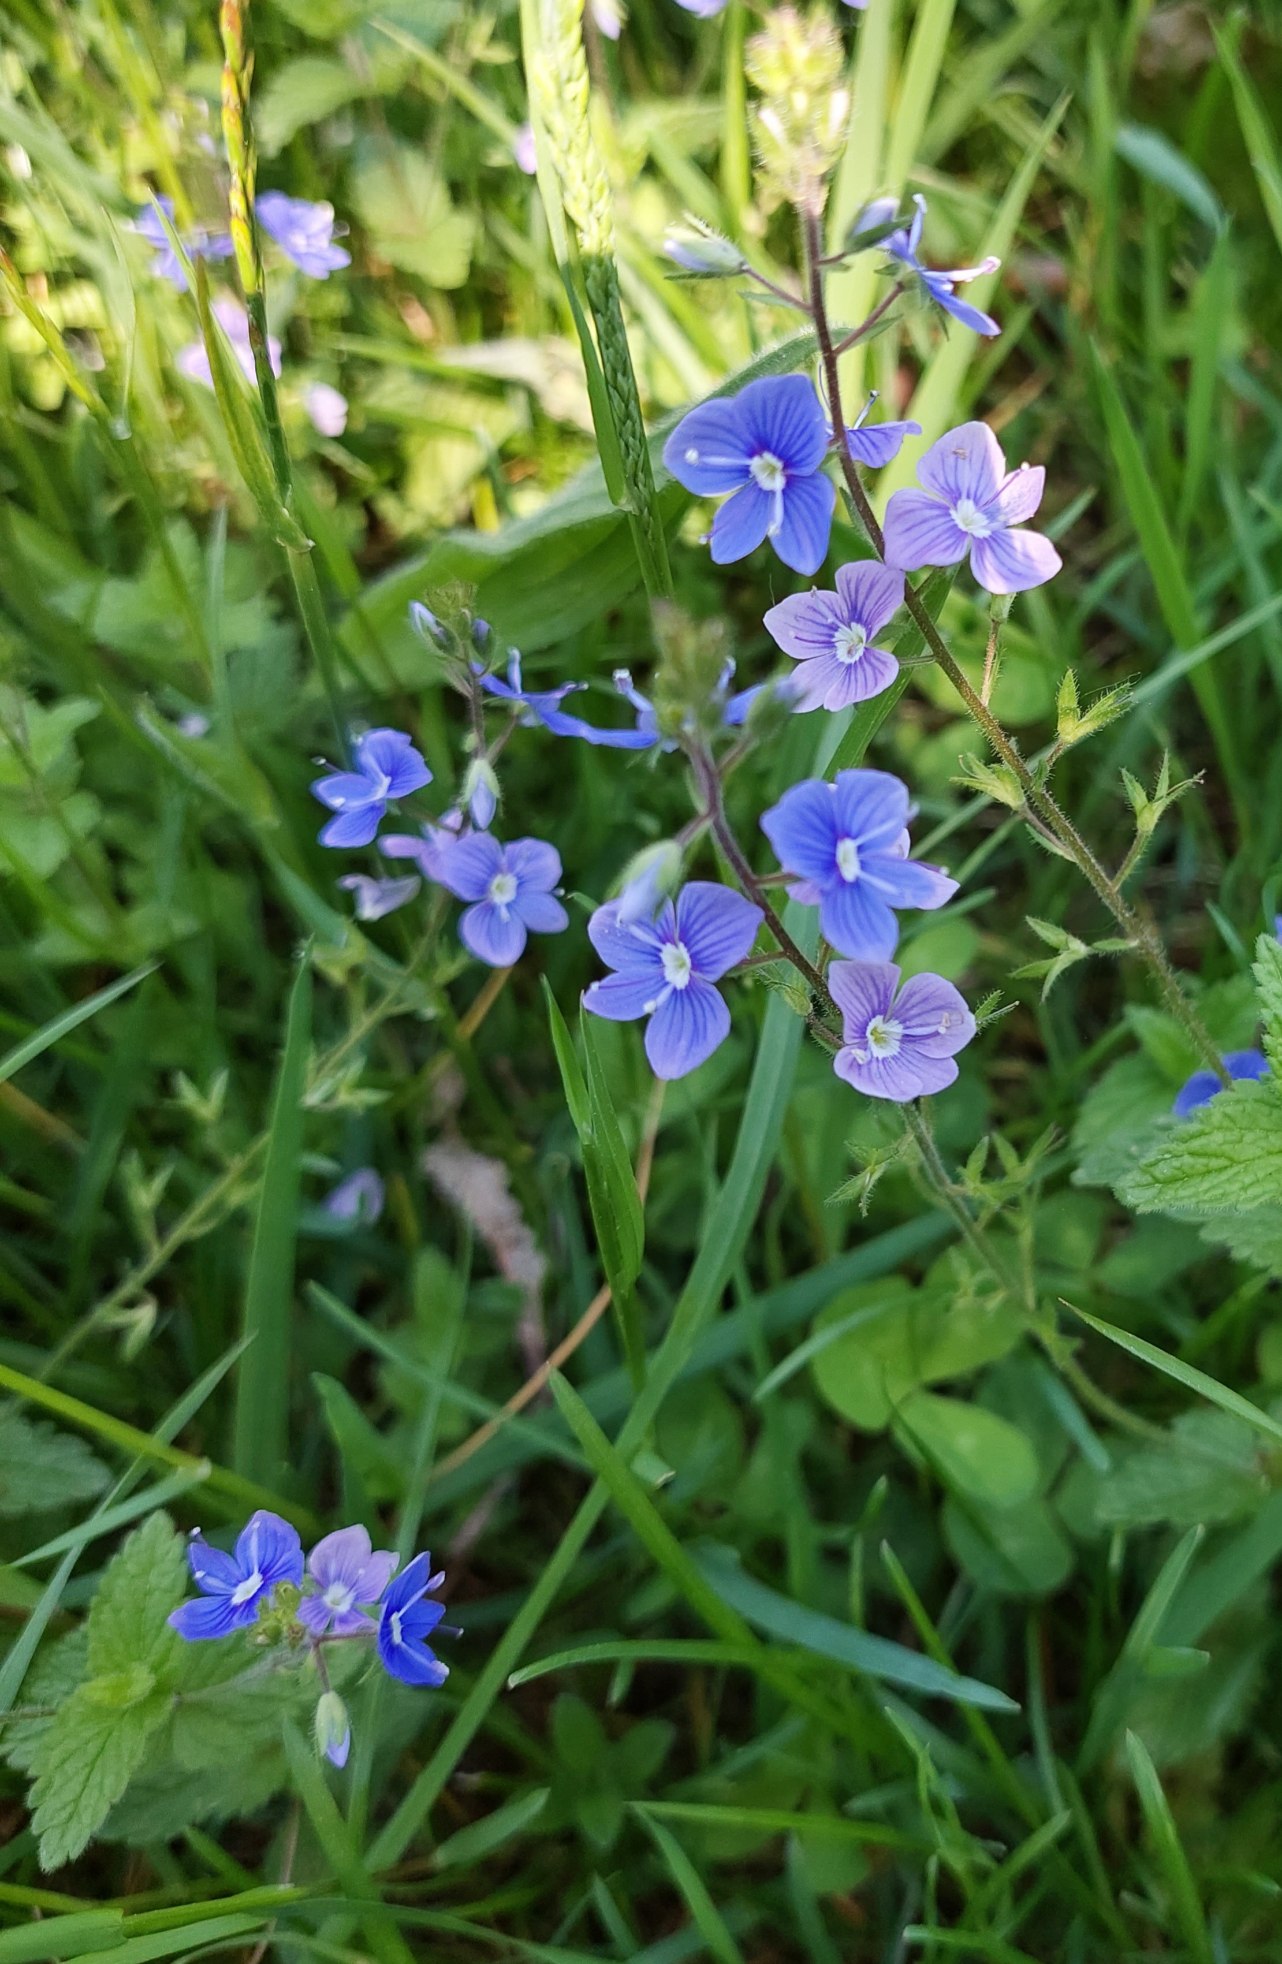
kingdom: Plantae
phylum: Tracheophyta
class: Magnoliopsida
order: Lamiales
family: Plantaginaceae
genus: Veronica
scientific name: Veronica chamaedrys
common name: Tveskægget ærenpris
